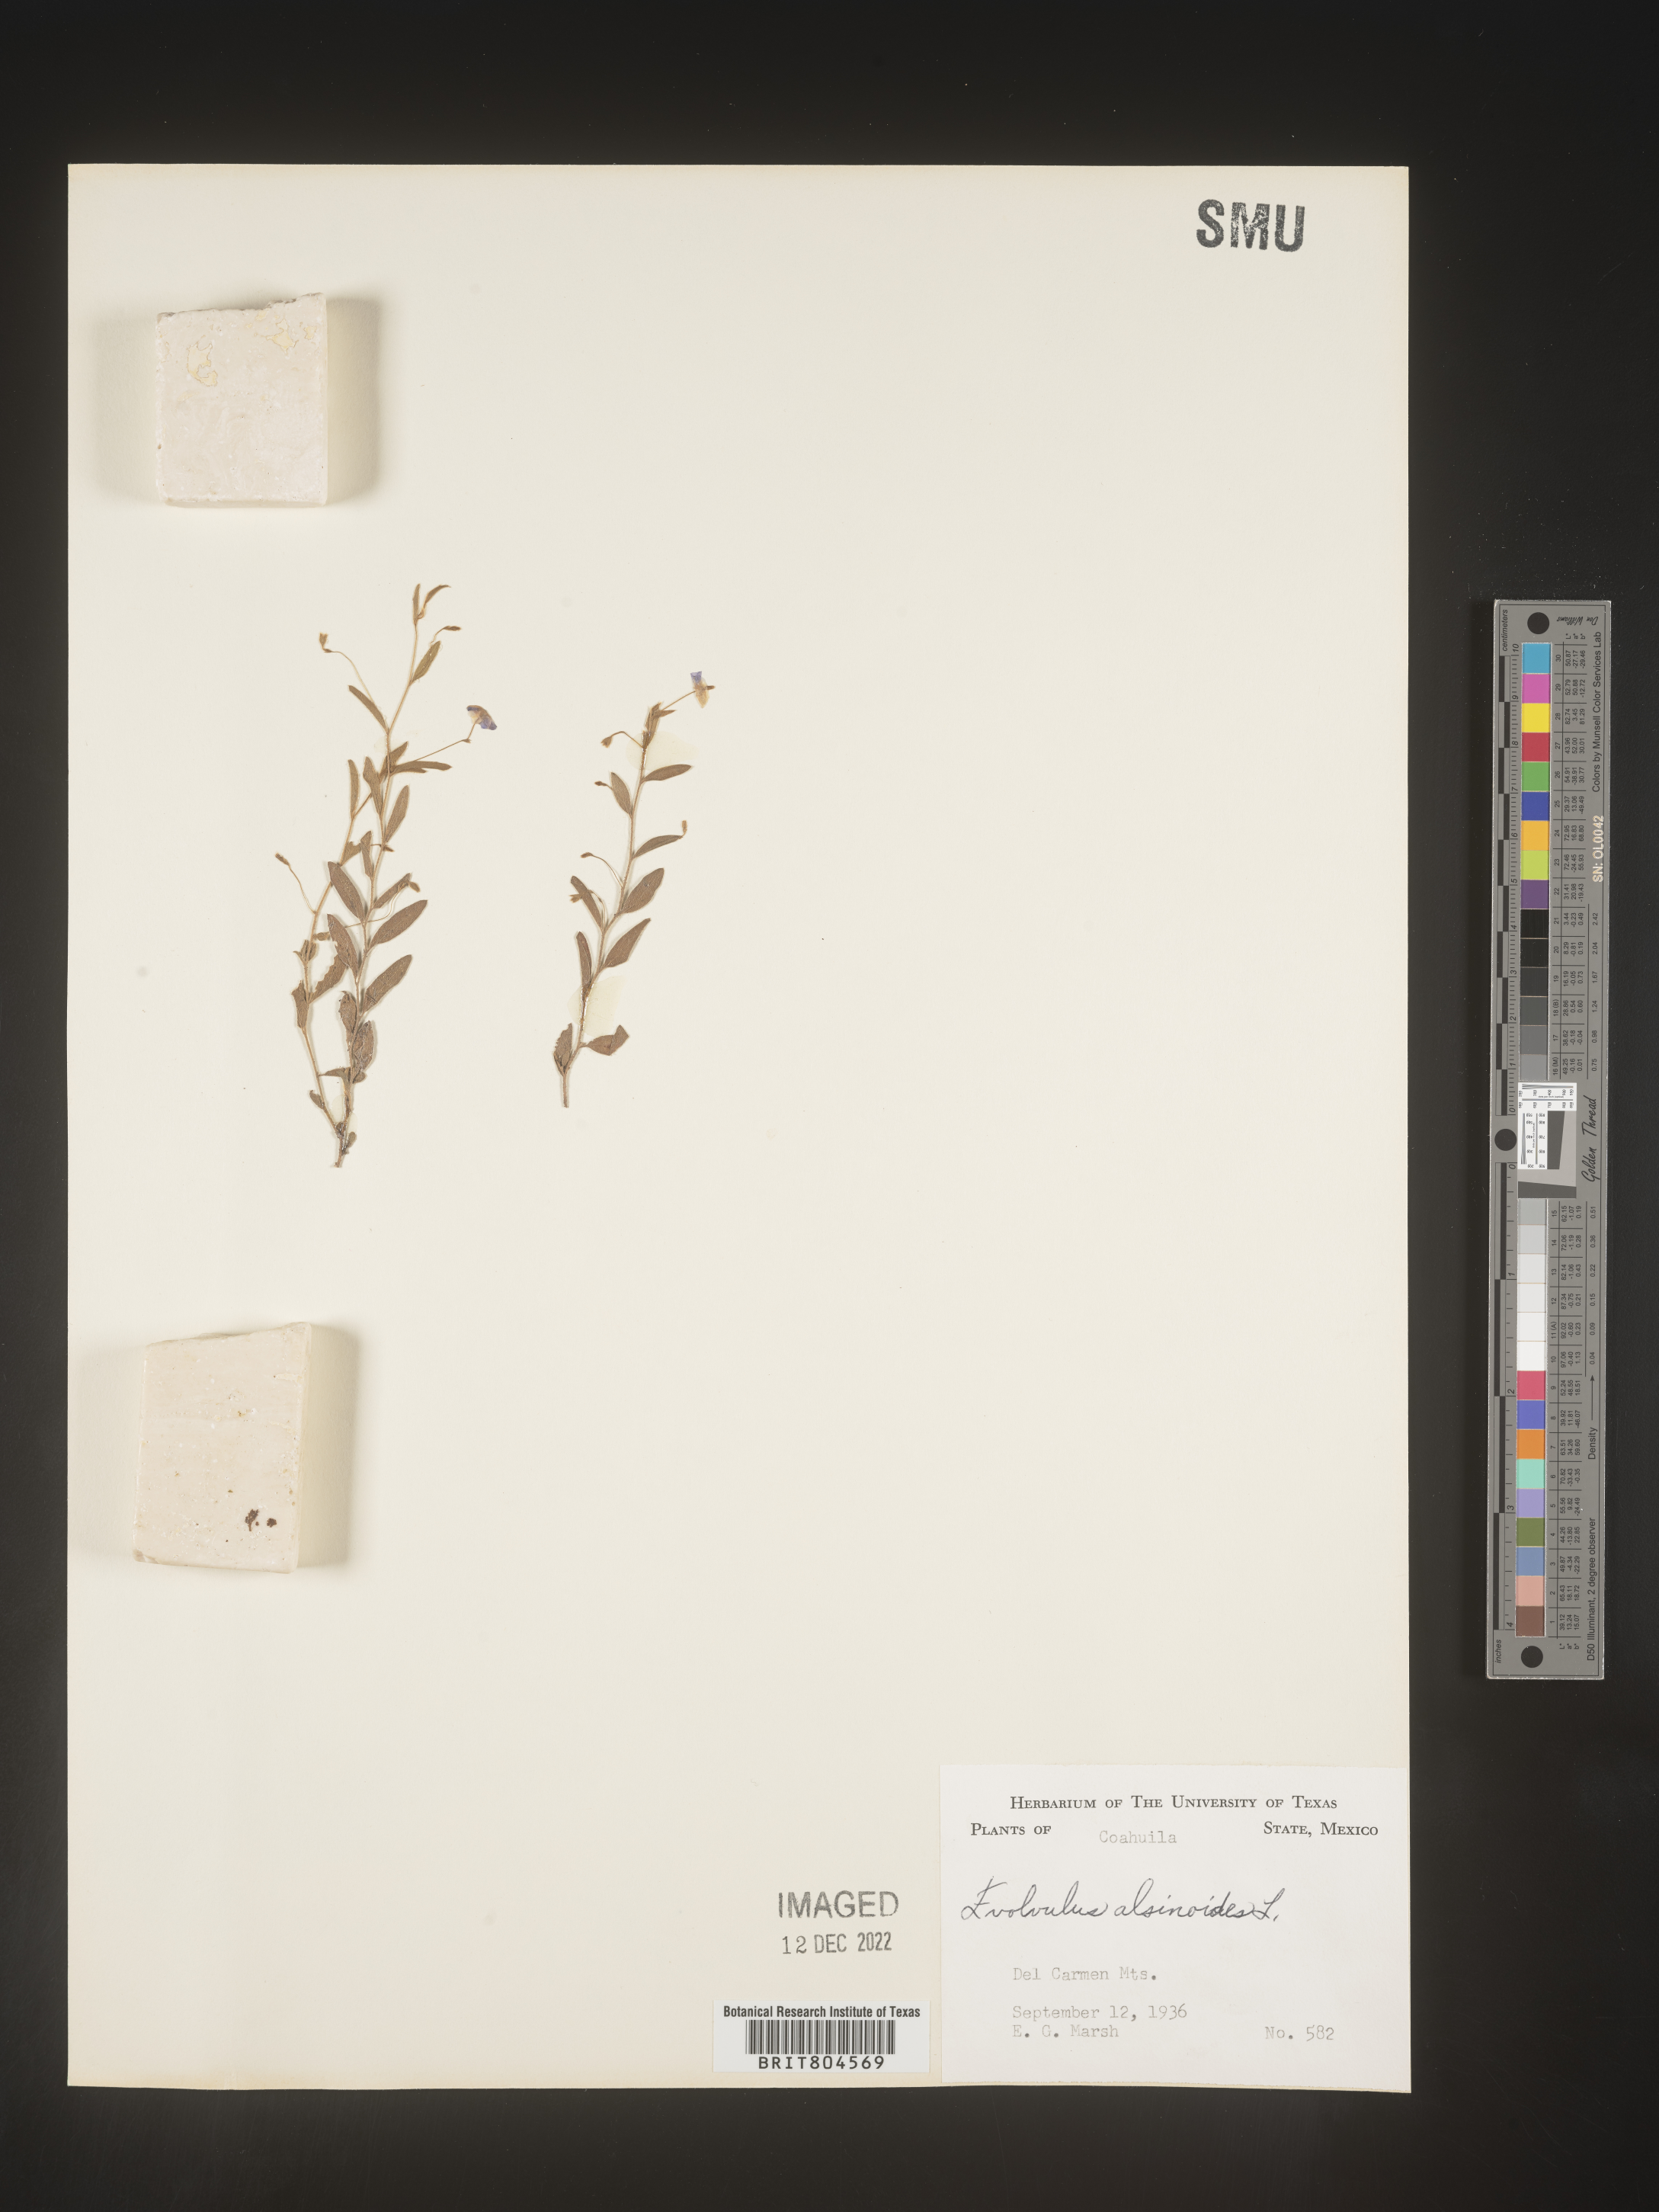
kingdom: Plantae
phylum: Tracheophyta
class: Magnoliopsida
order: Solanales
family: Convolvulaceae
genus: Evolvulus
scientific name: Evolvulus
